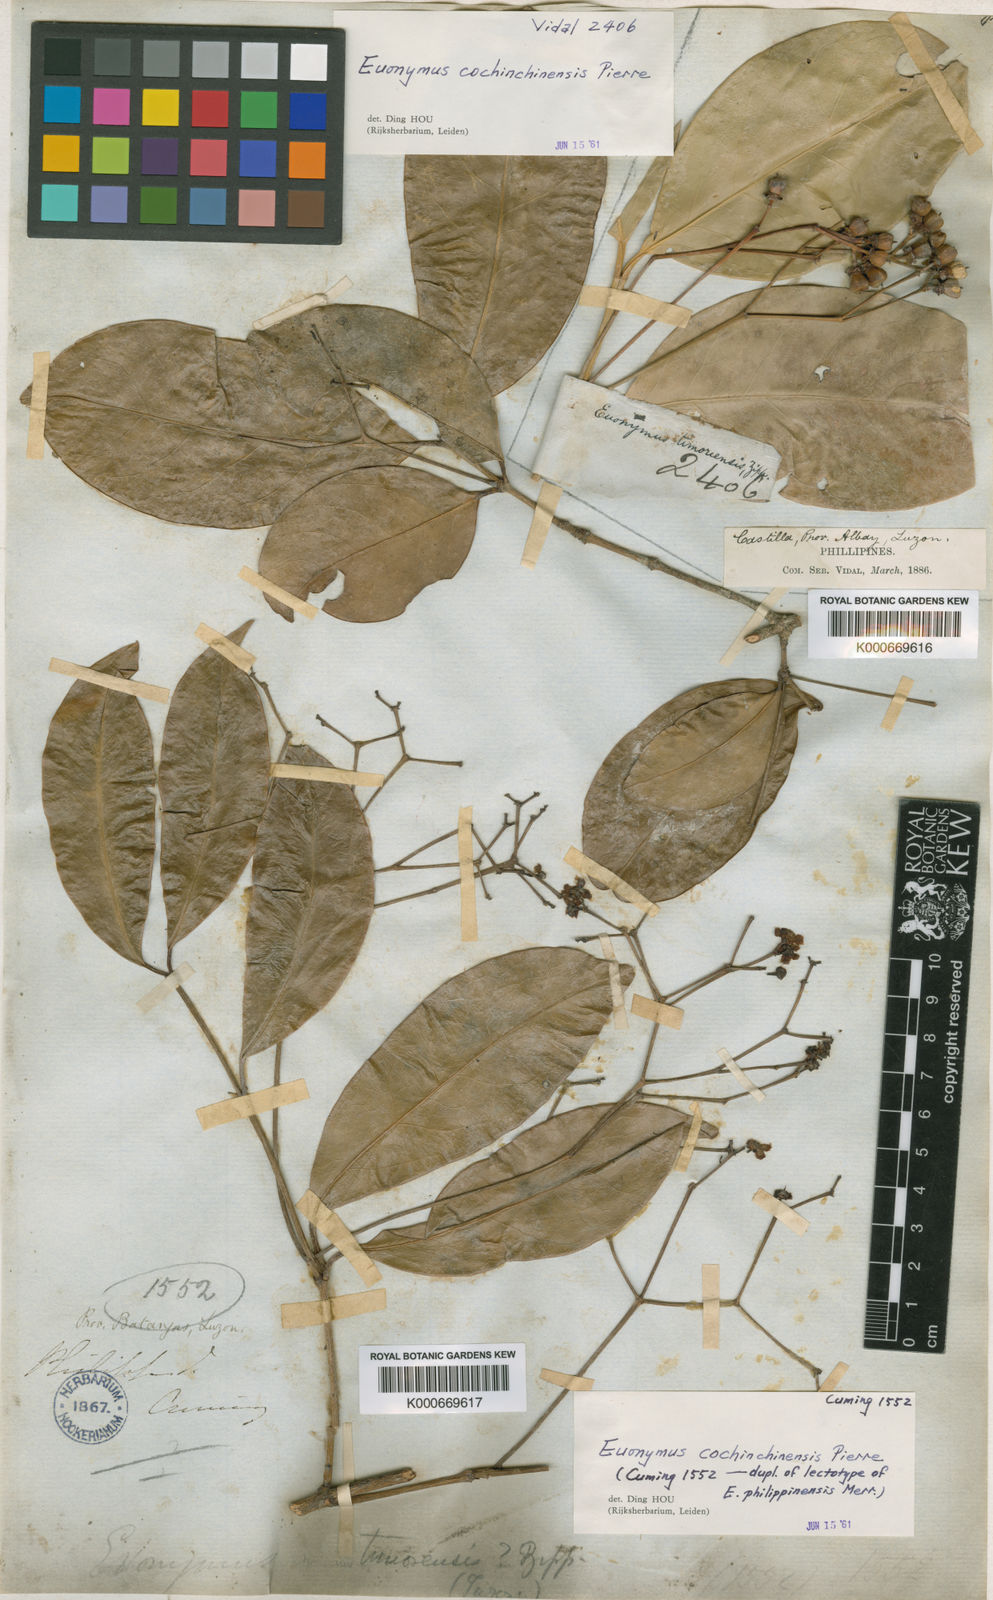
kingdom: Plantae
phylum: Tracheophyta
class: Magnoliopsida
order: Celastrales
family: Celastraceae
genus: Euonymus
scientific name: Euonymus cochinchinensis
